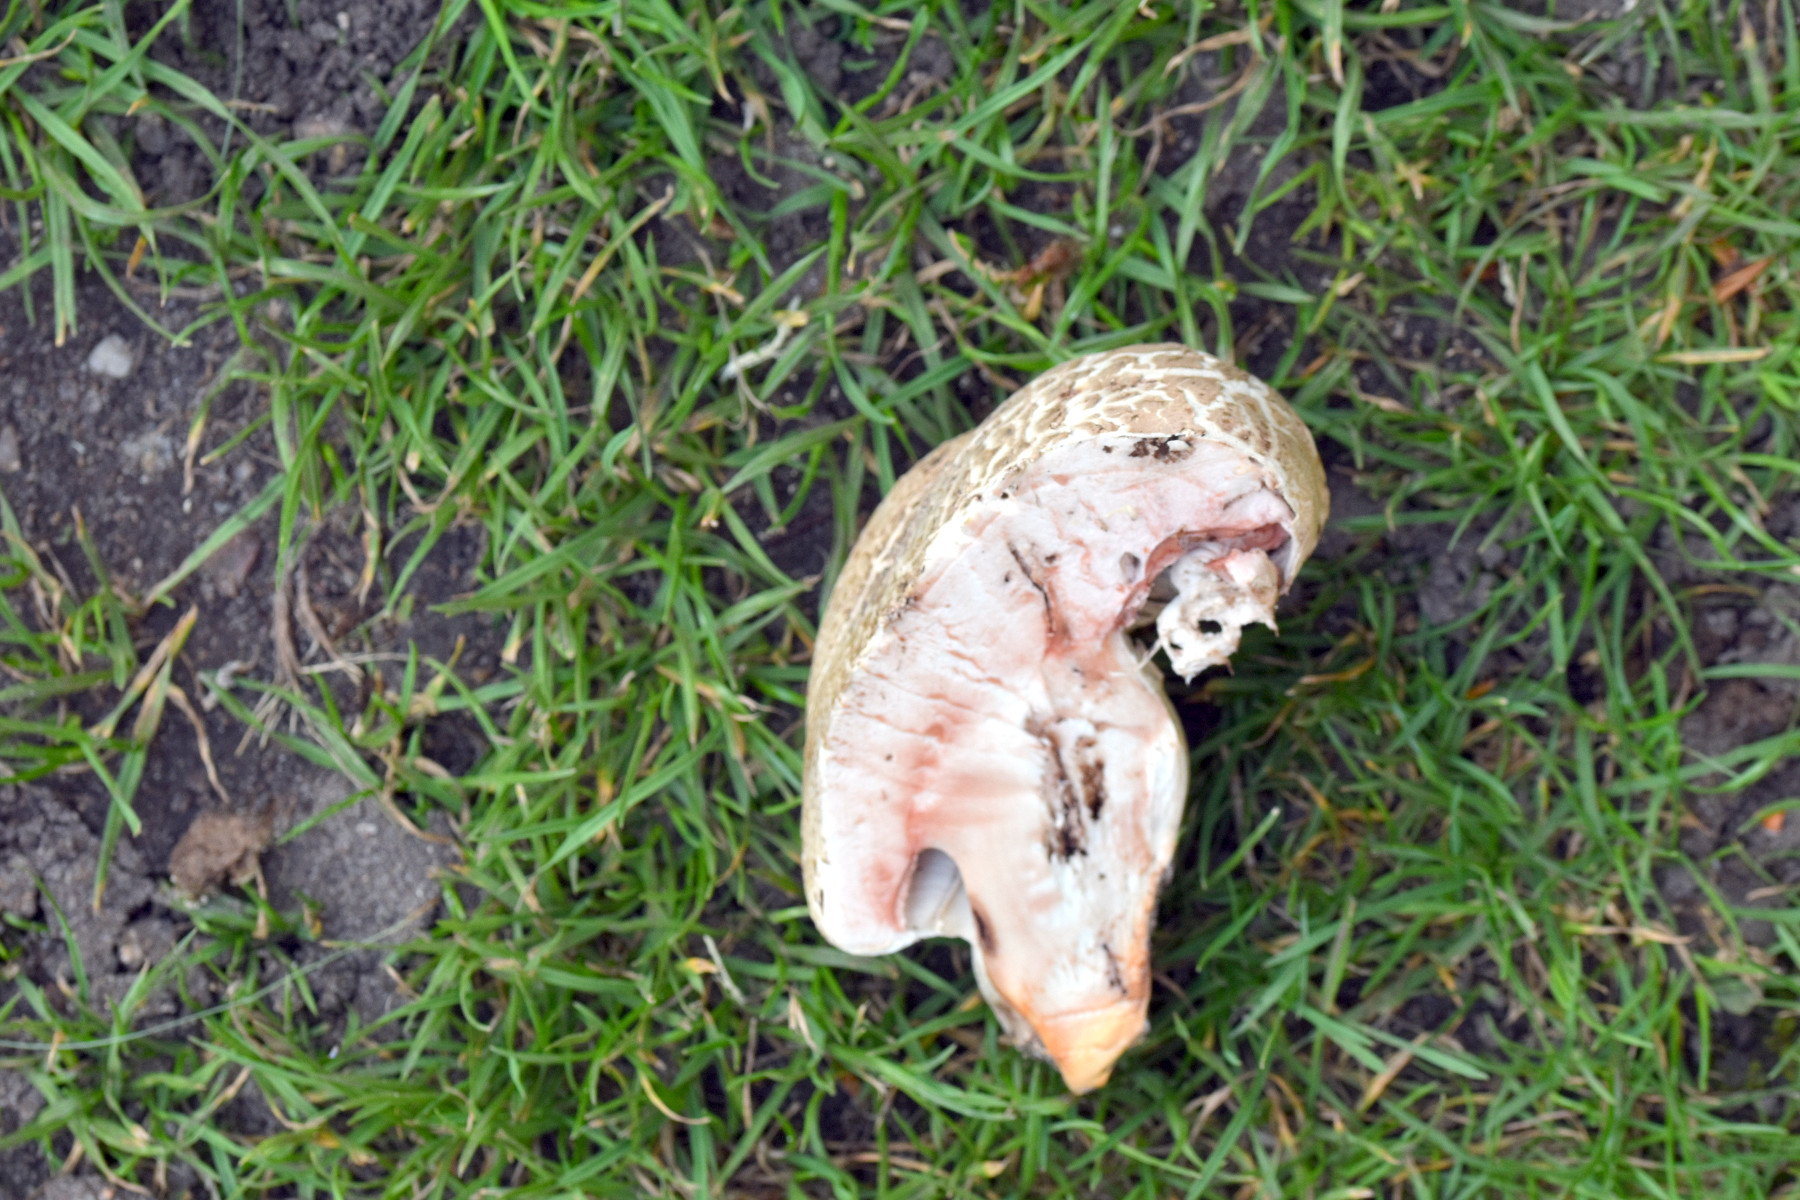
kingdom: Fungi
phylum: Basidiomycota
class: Agaricomycetes
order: Agaricales
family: Agaricaceae
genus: Agaricus
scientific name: Agaricus bernardii
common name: strandengs-champignon
